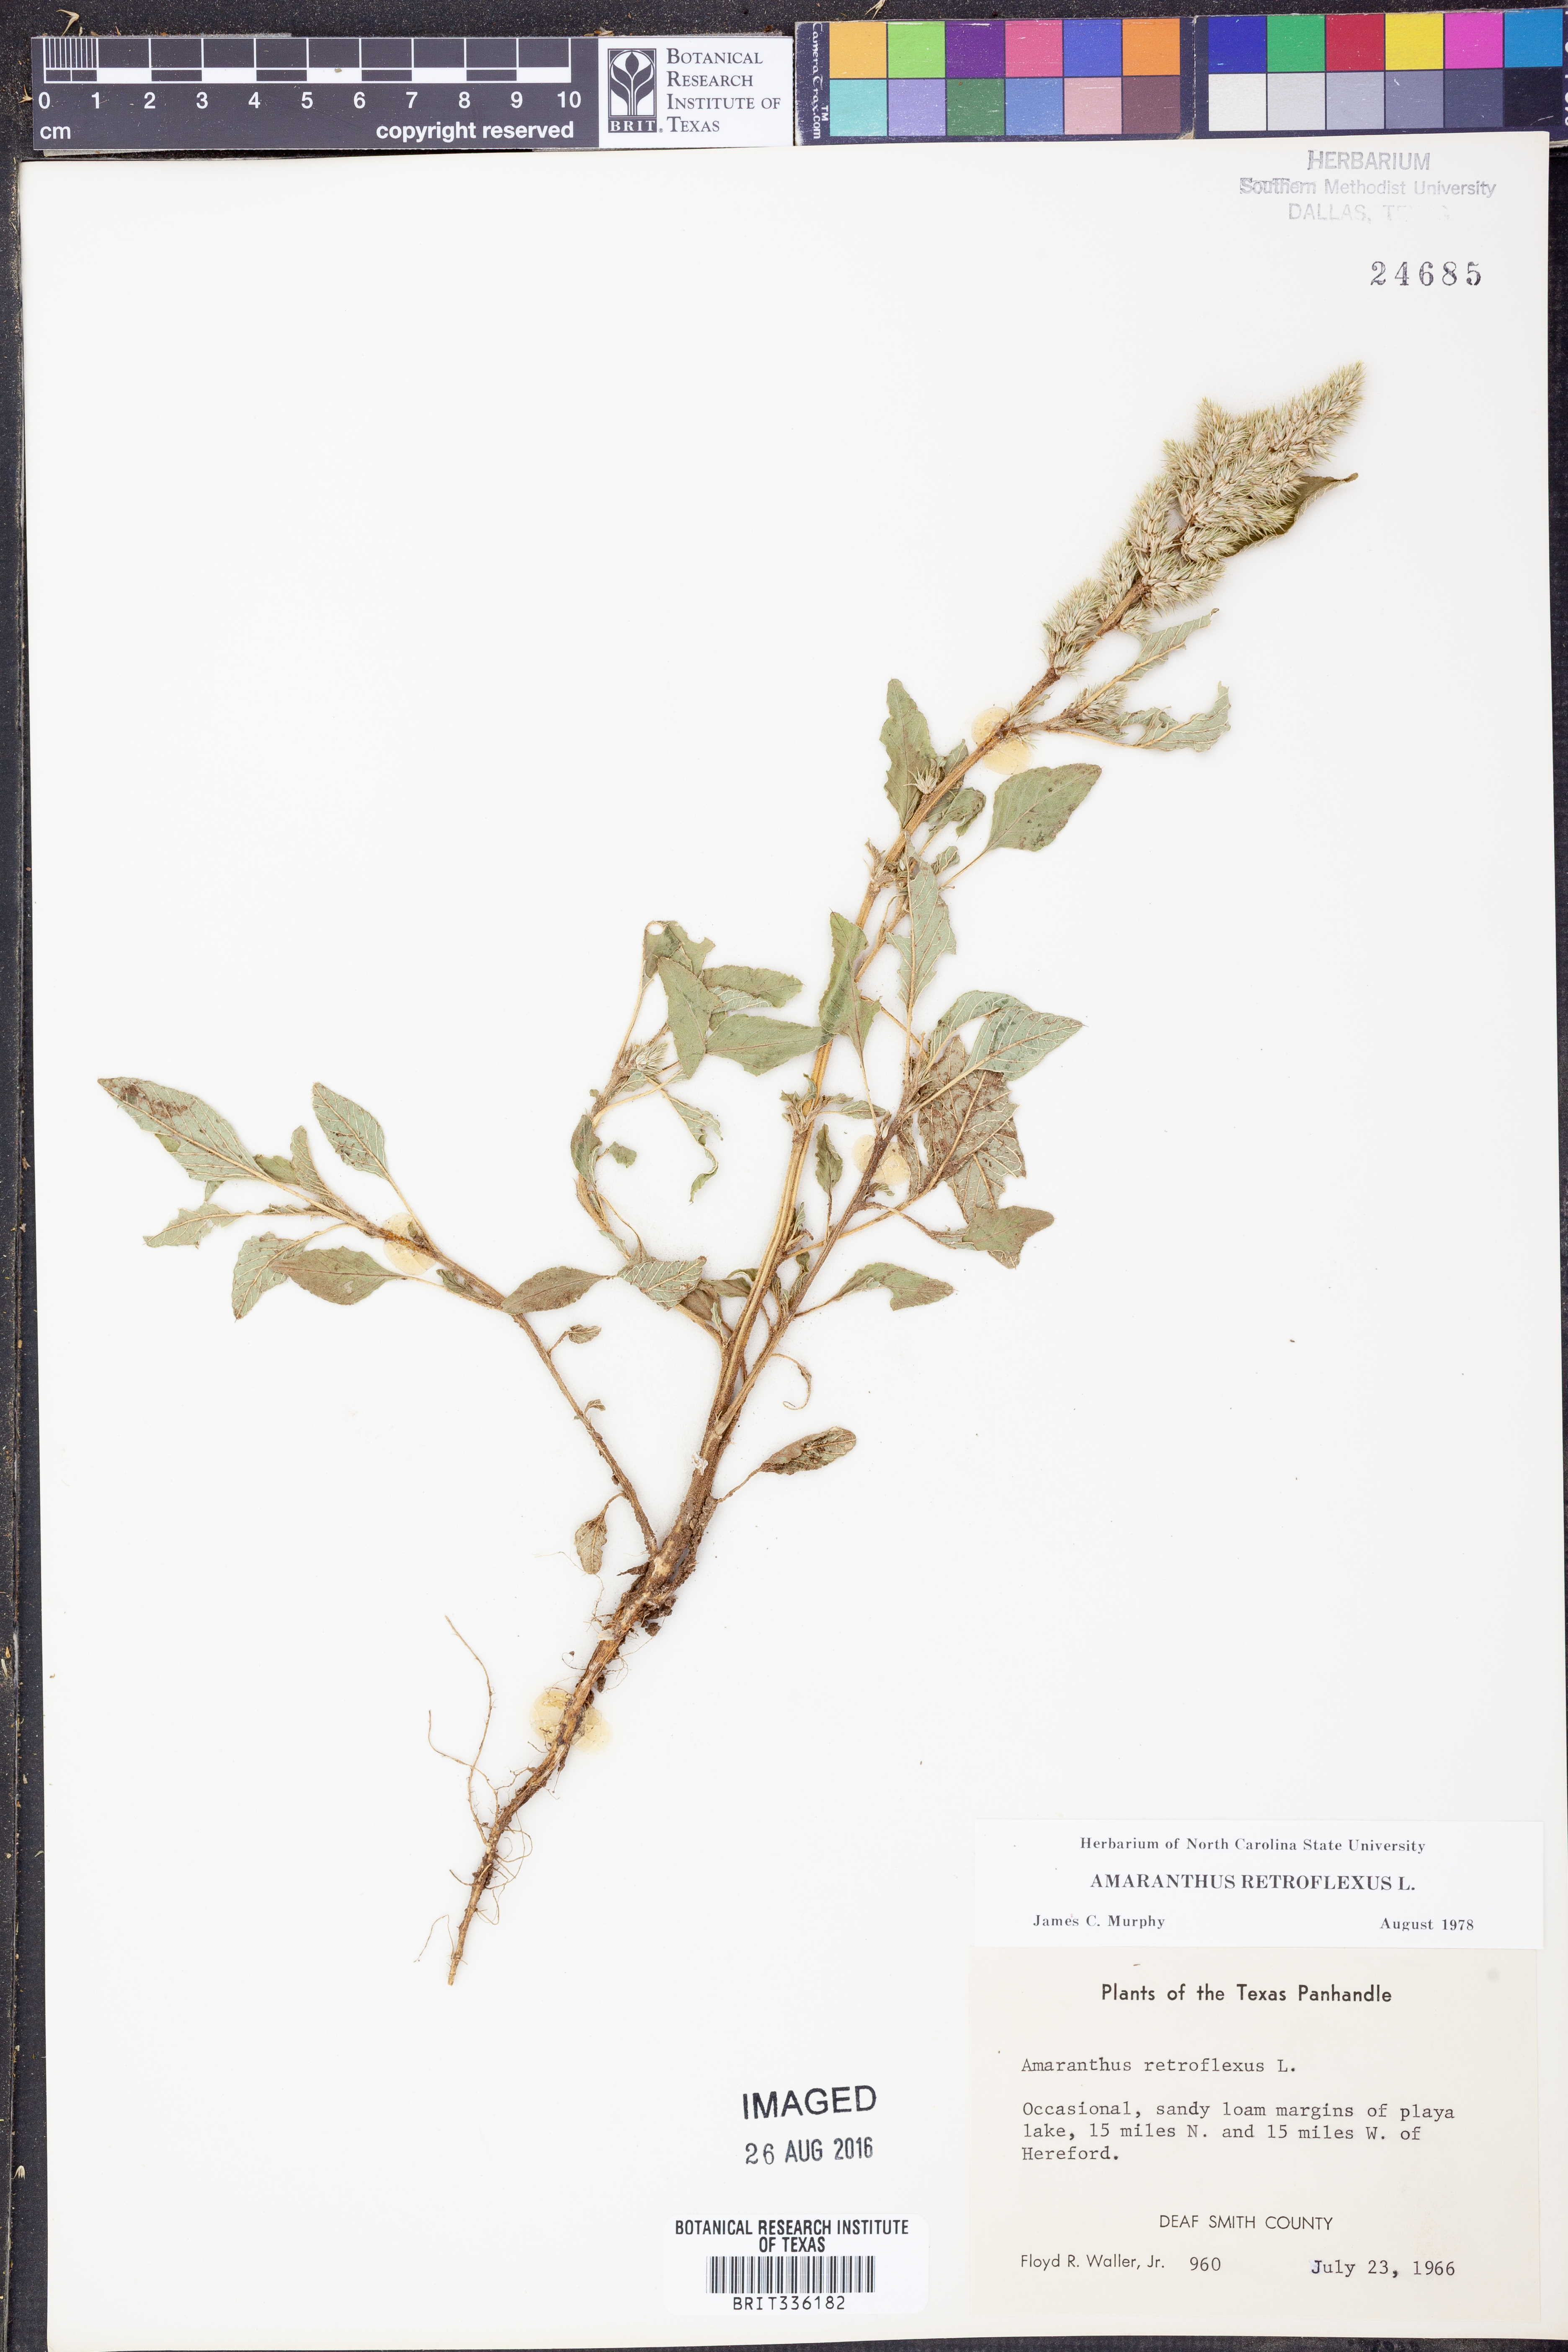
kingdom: Plantae
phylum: Tracheophyta
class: Magnoliopsida
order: Caryophyllales
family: Amaranthaceae
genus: Amaranthus
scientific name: Amaranthus retroflexus
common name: Redroot amaranth
